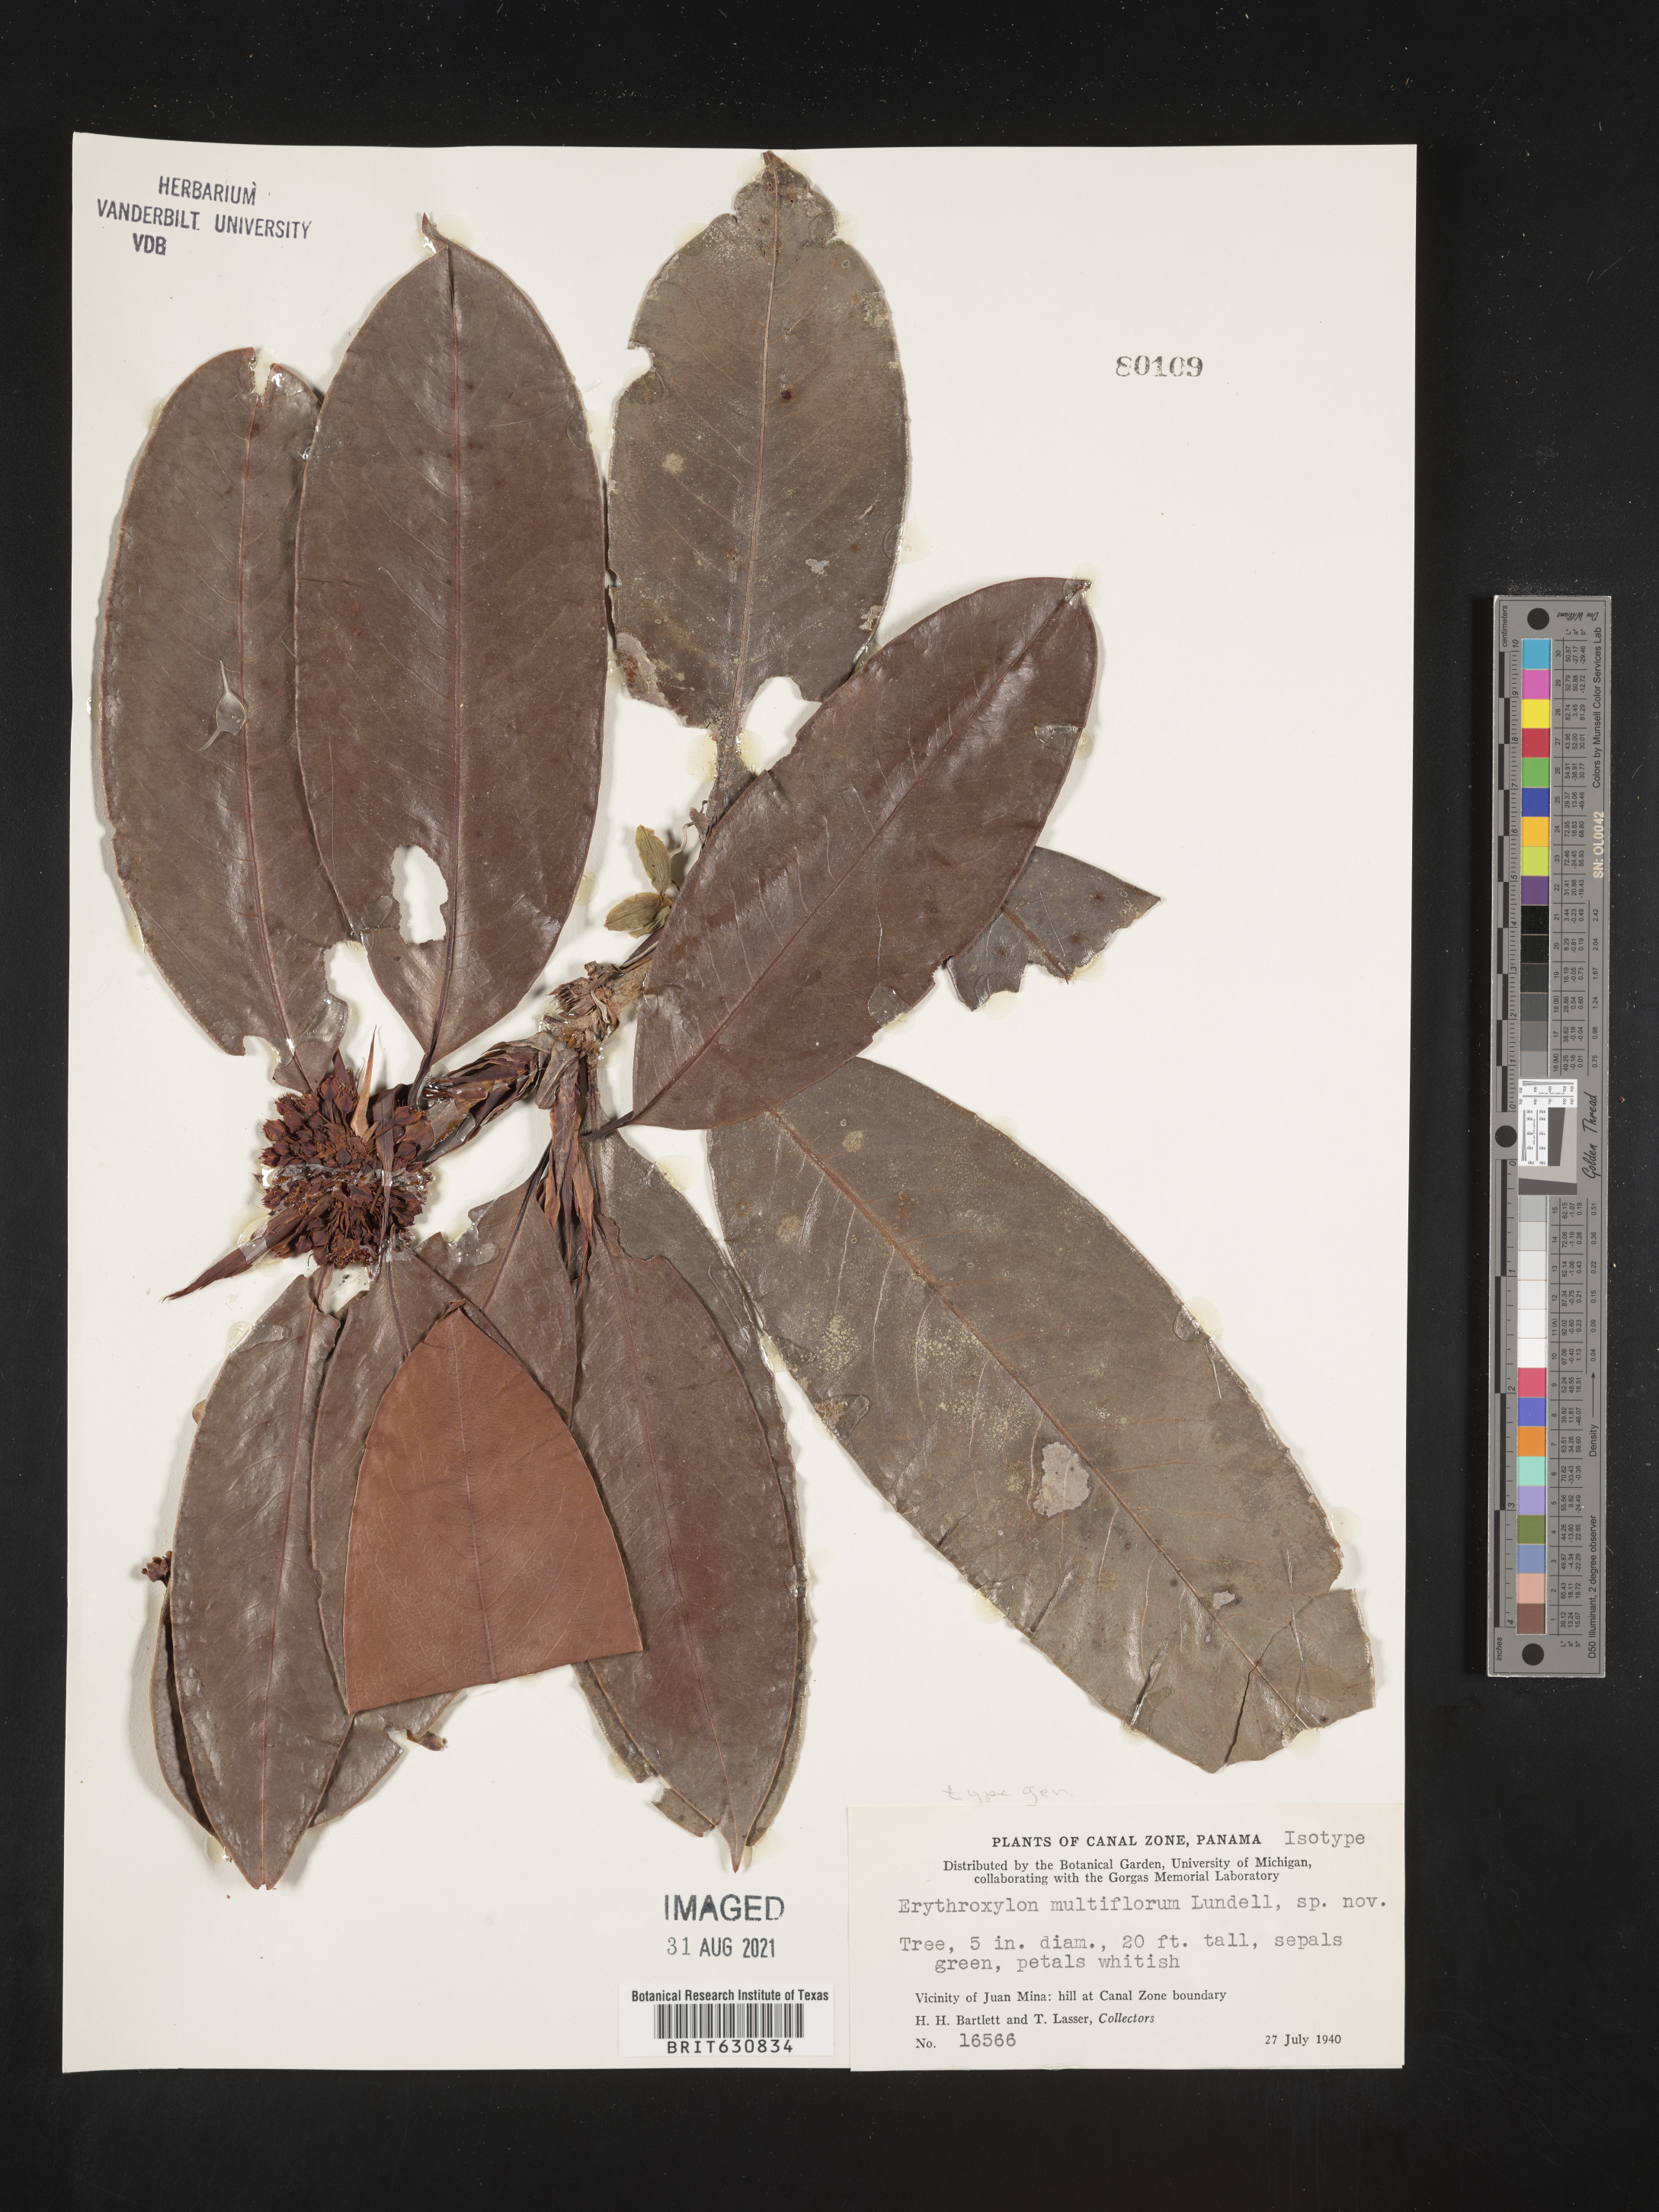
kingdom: Plantae
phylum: Tracheophyta
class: Magnoliopsida
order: Malpighiales
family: Erythroxylaceae
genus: Erythroxylum
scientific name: Erythroxylum
